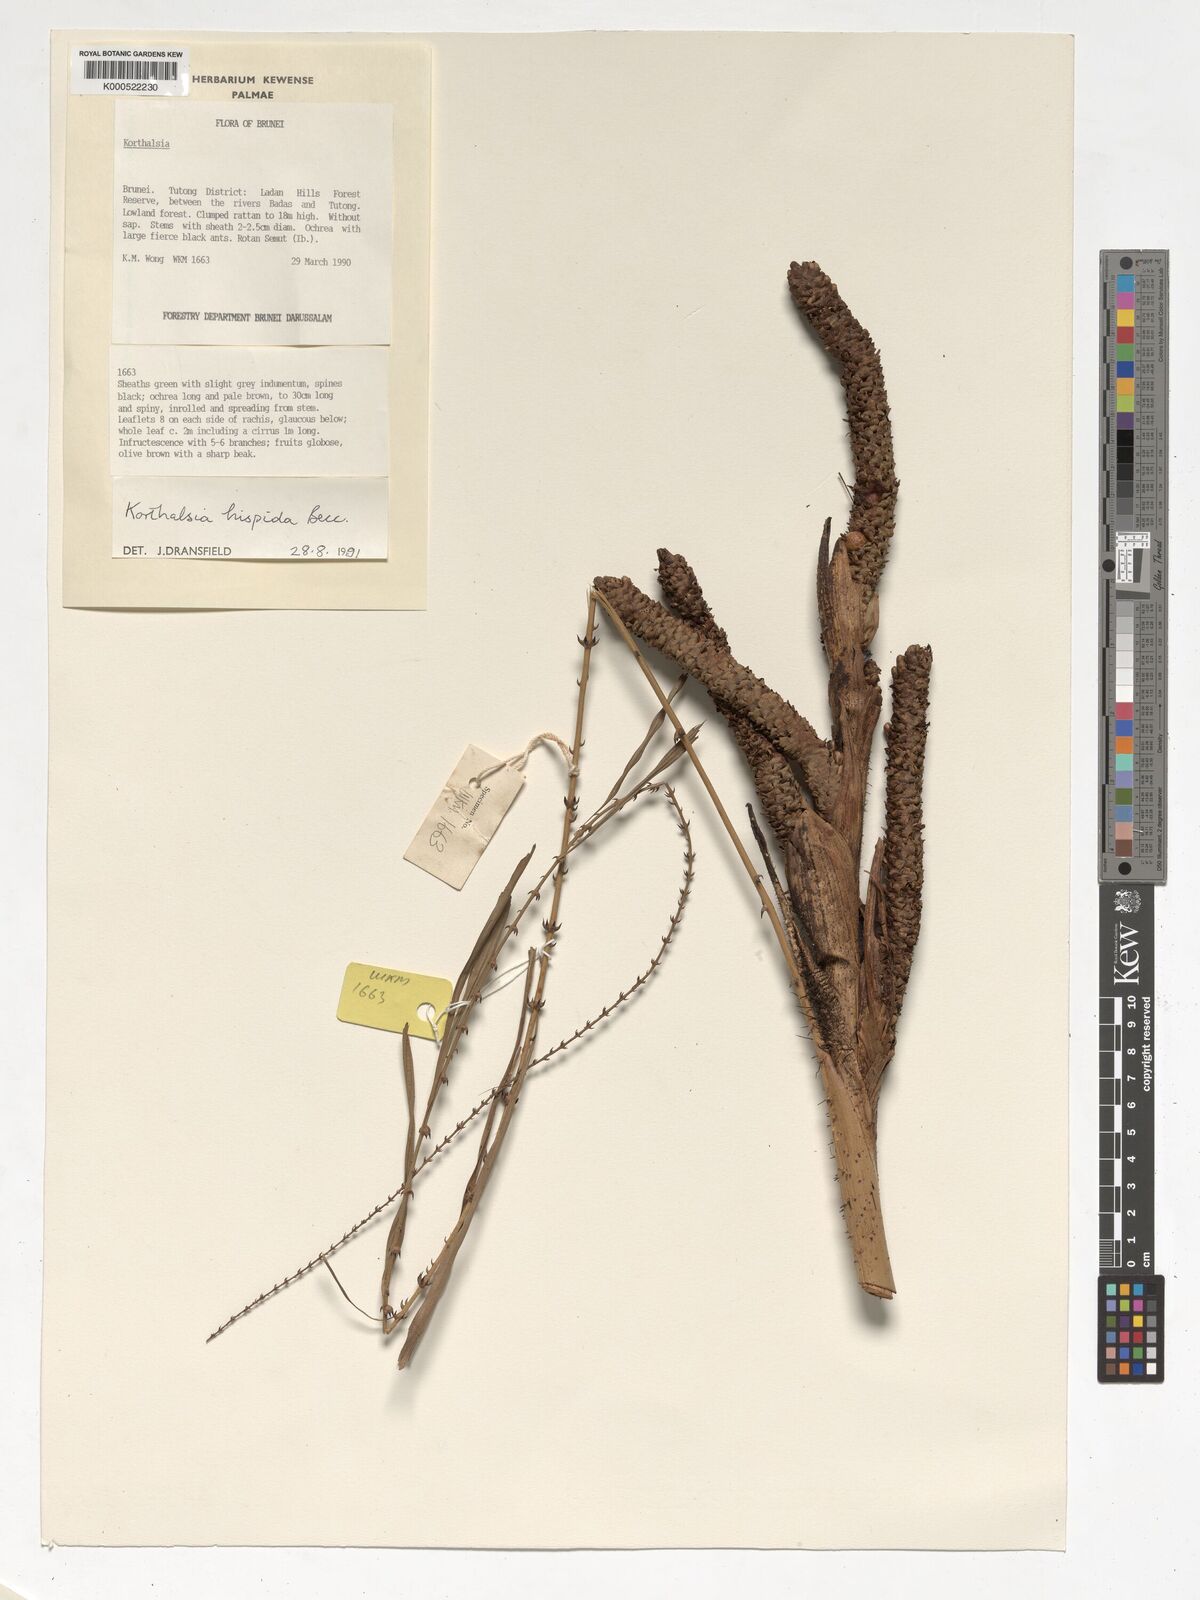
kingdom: Plantae
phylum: Tracheophyta
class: Liliopsida
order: Arecales
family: Arecaceae
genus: Korthalsia
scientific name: Korthalsia hispida
